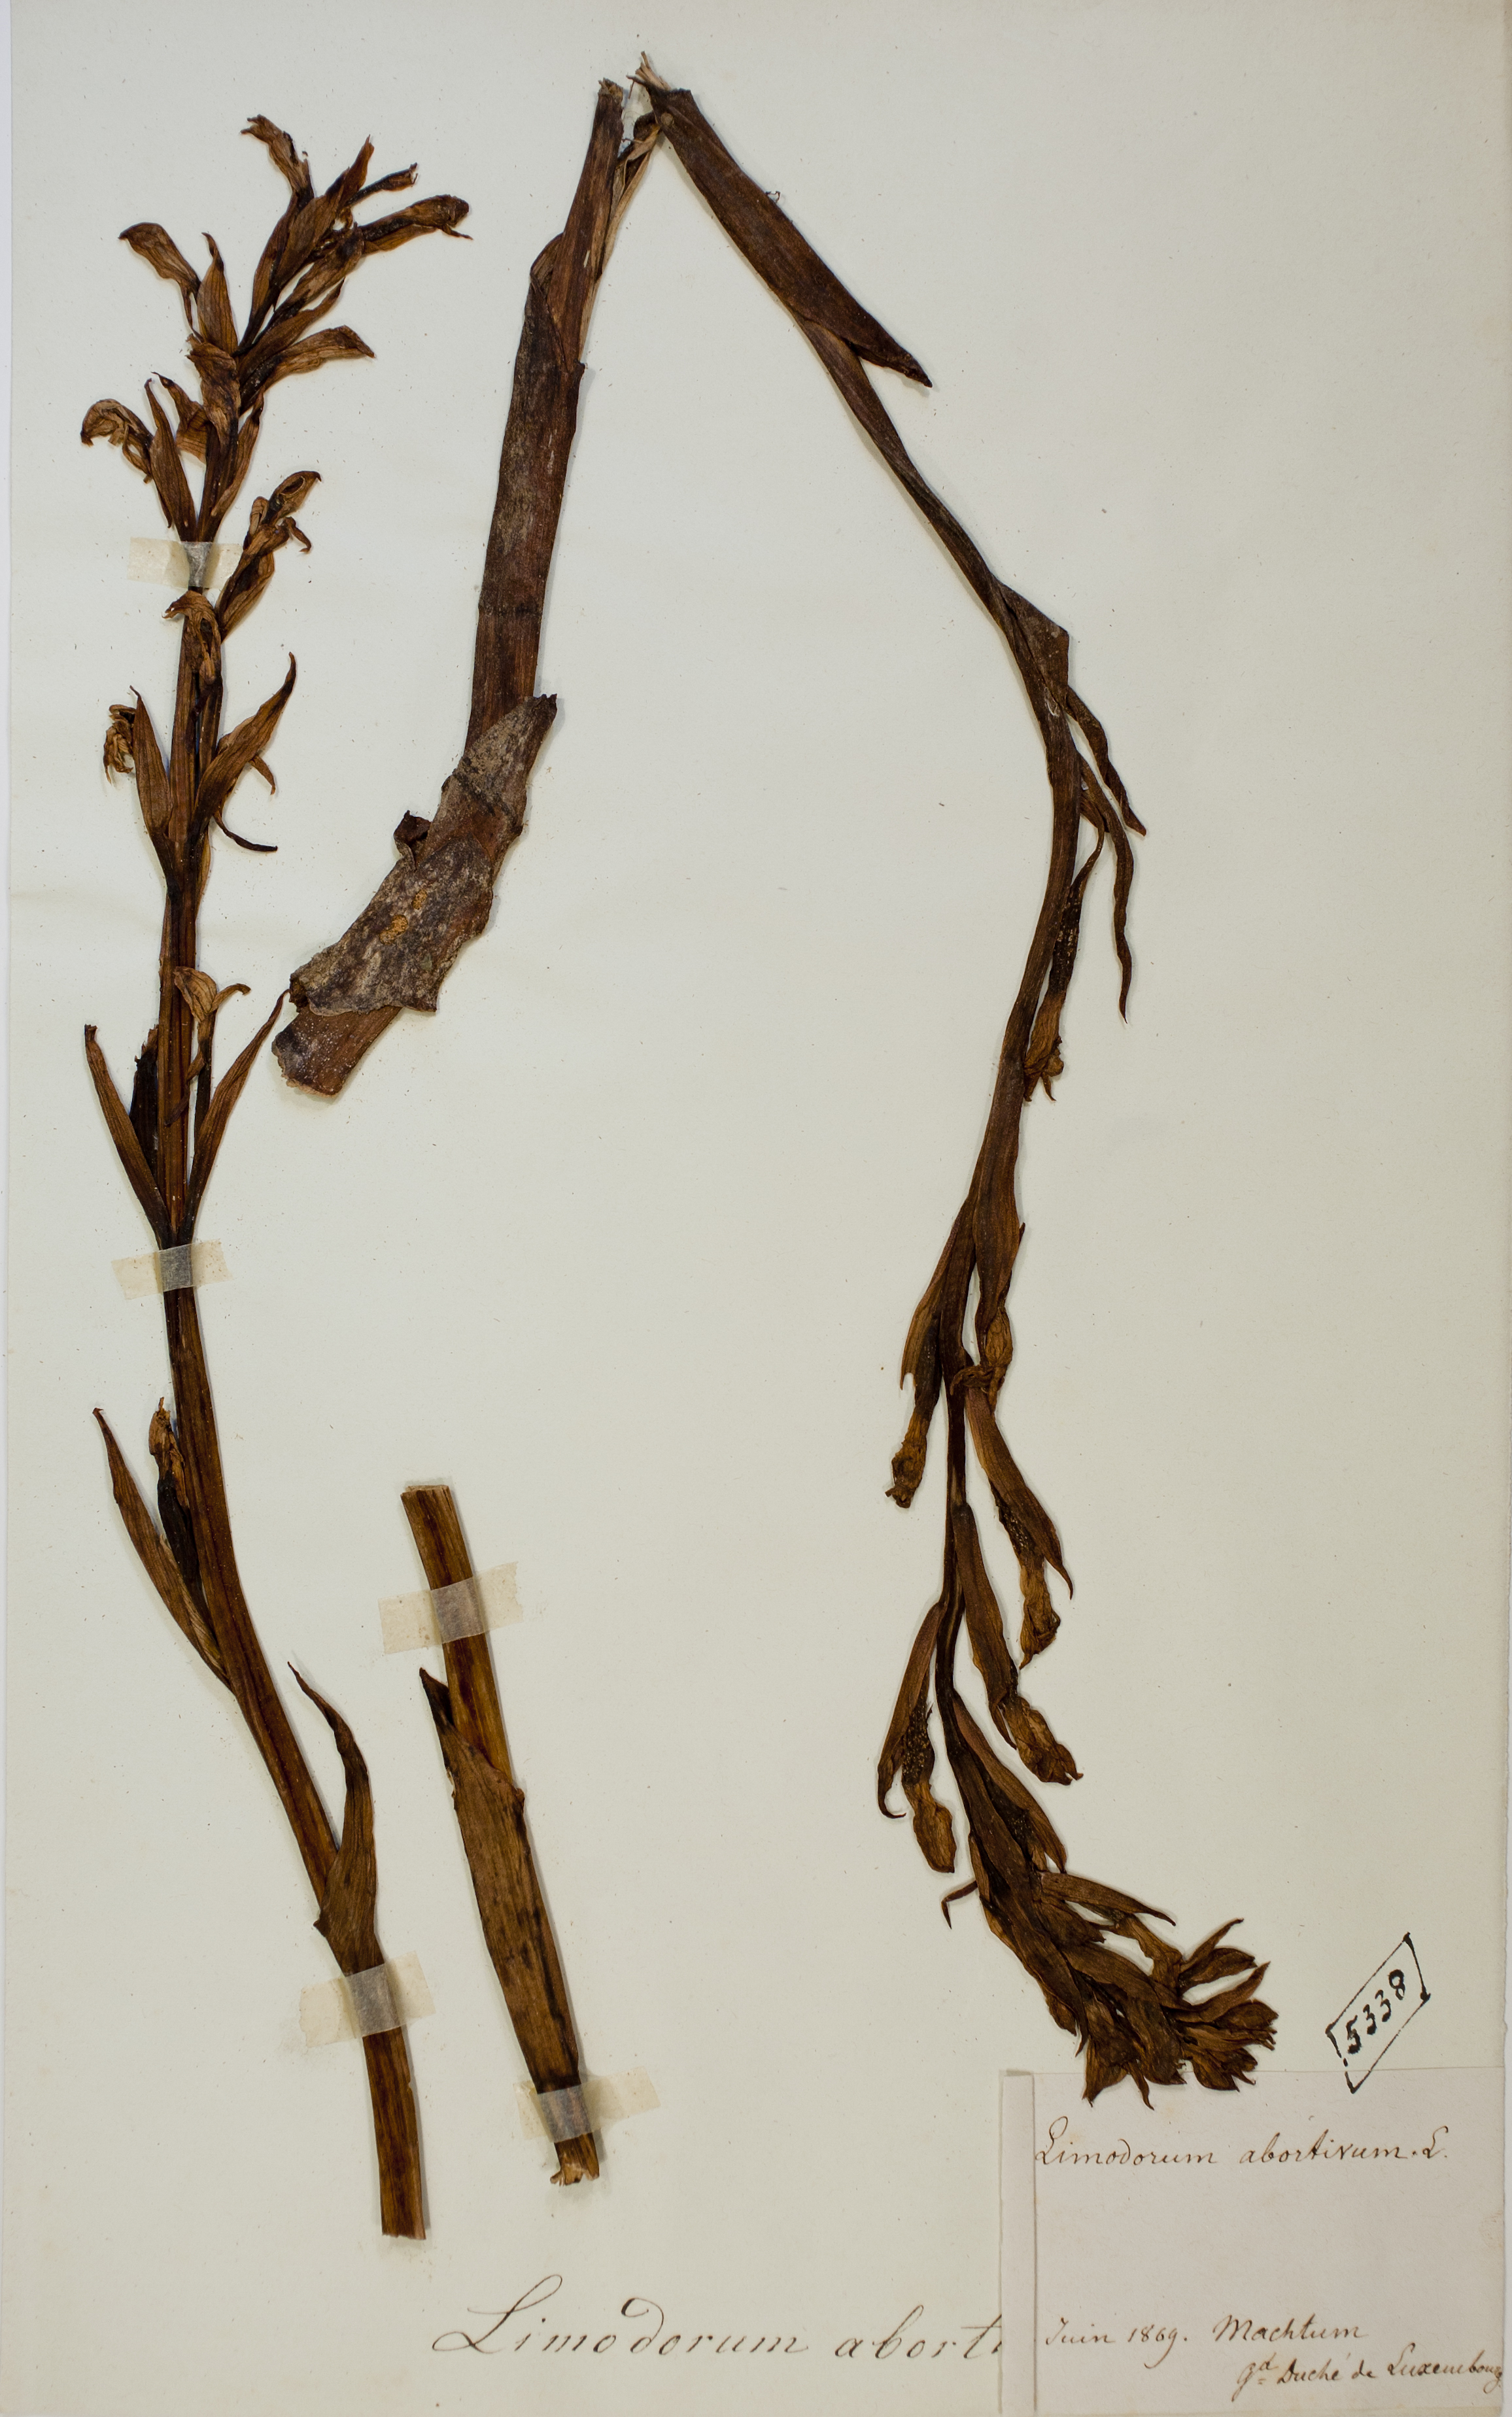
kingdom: Plantae
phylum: Tracheophyta
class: Liliopsida
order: Asparagales
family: Orchidaceae
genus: Limodorum
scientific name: Limodorum abortivum
